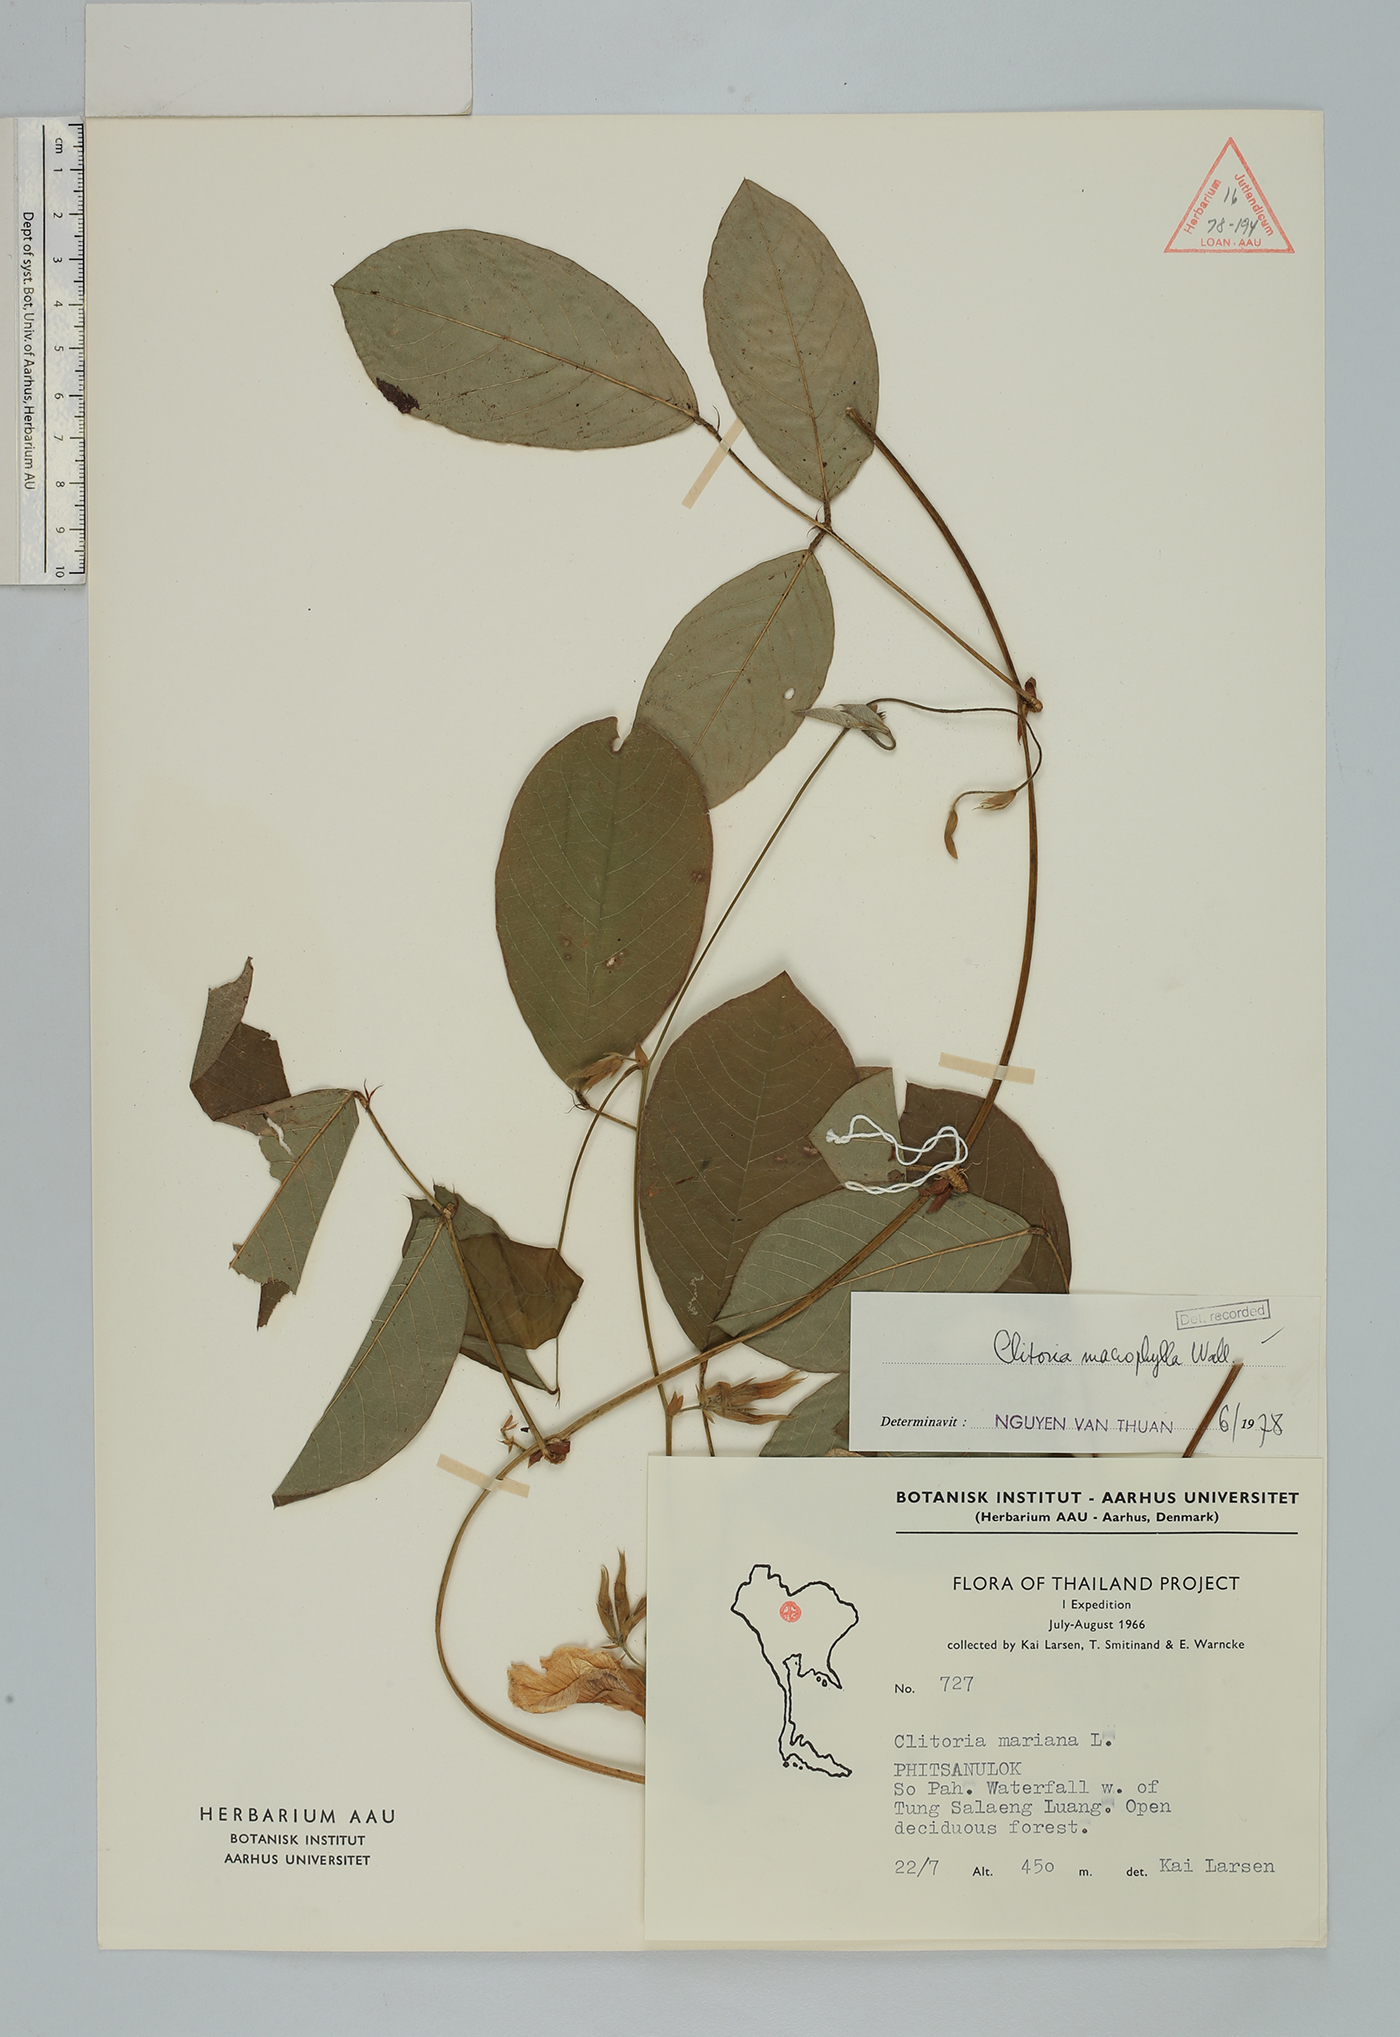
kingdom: Plantae
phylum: Tracheophyta
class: Magnoliopsida
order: Fabales
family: Fabaceae
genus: Clitoria
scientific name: Clitoria macrophylla
